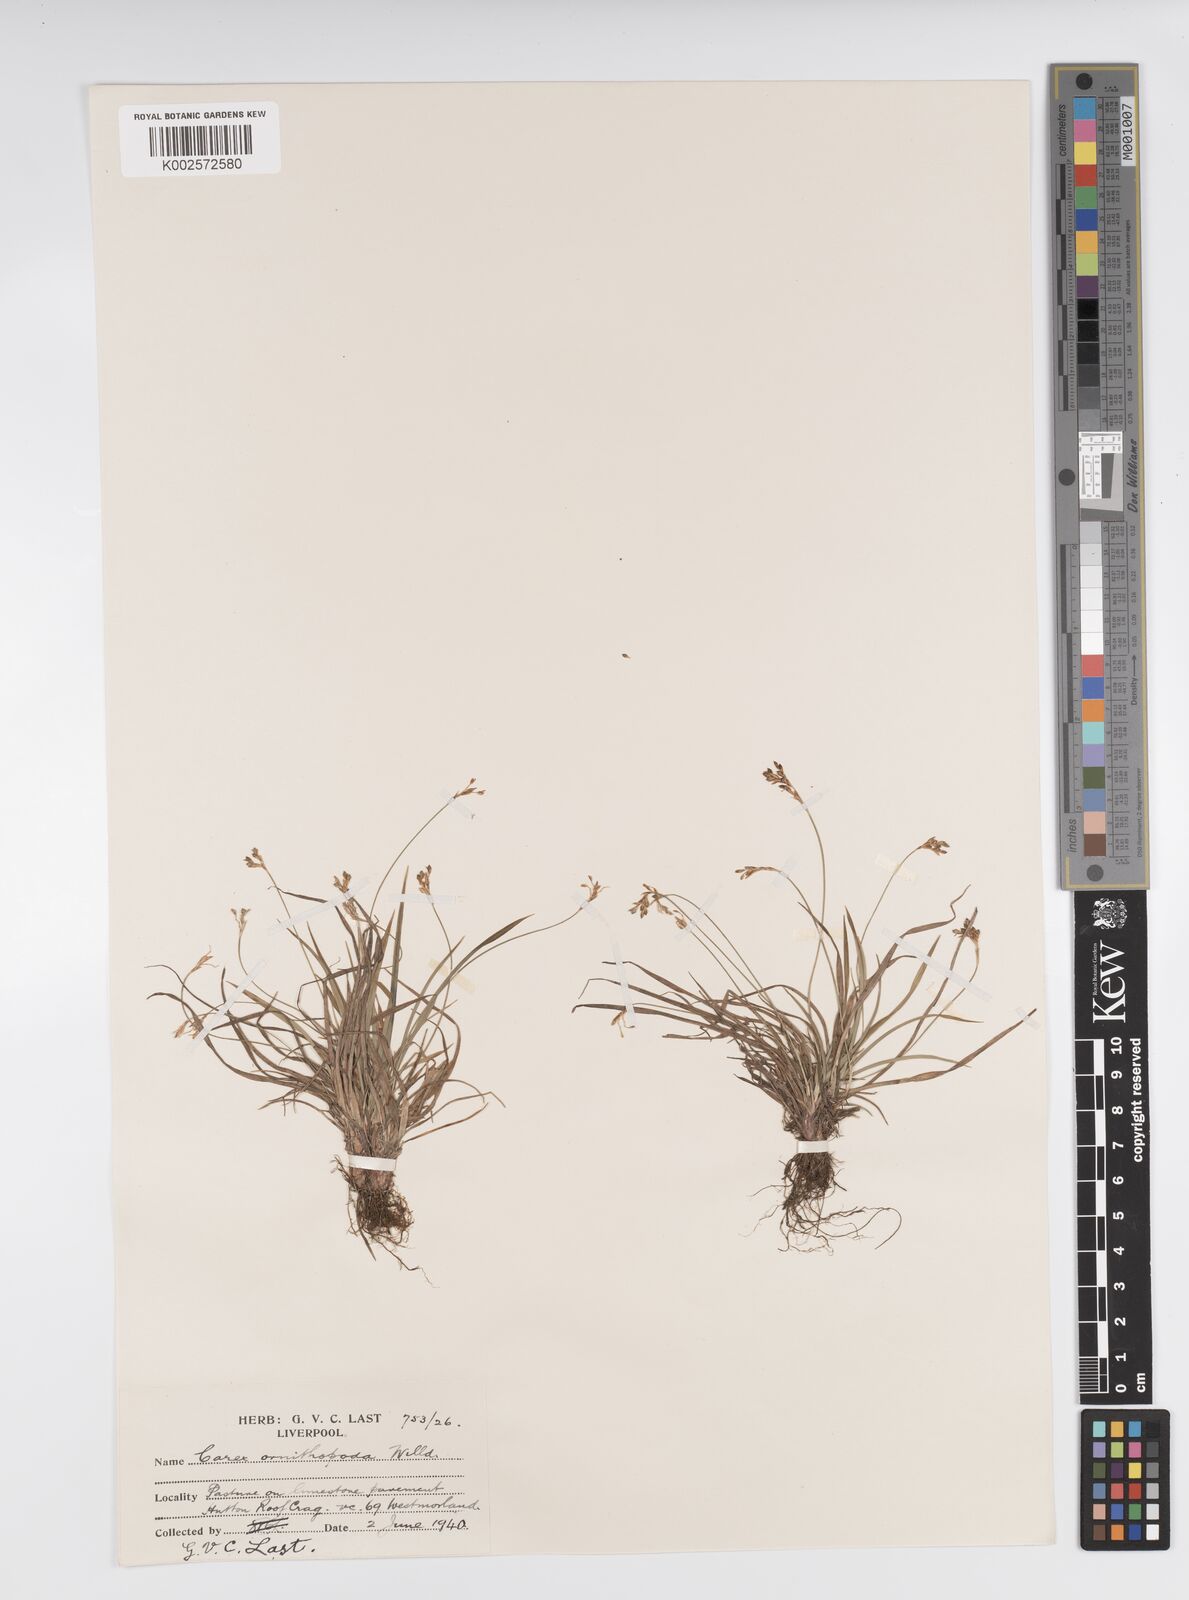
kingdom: Plantae
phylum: Tracheophyta
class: Liliopsida
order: Poales
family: Cyperaceae
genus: Carex
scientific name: Carex ornithopoda
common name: Bird's-foot sedge
